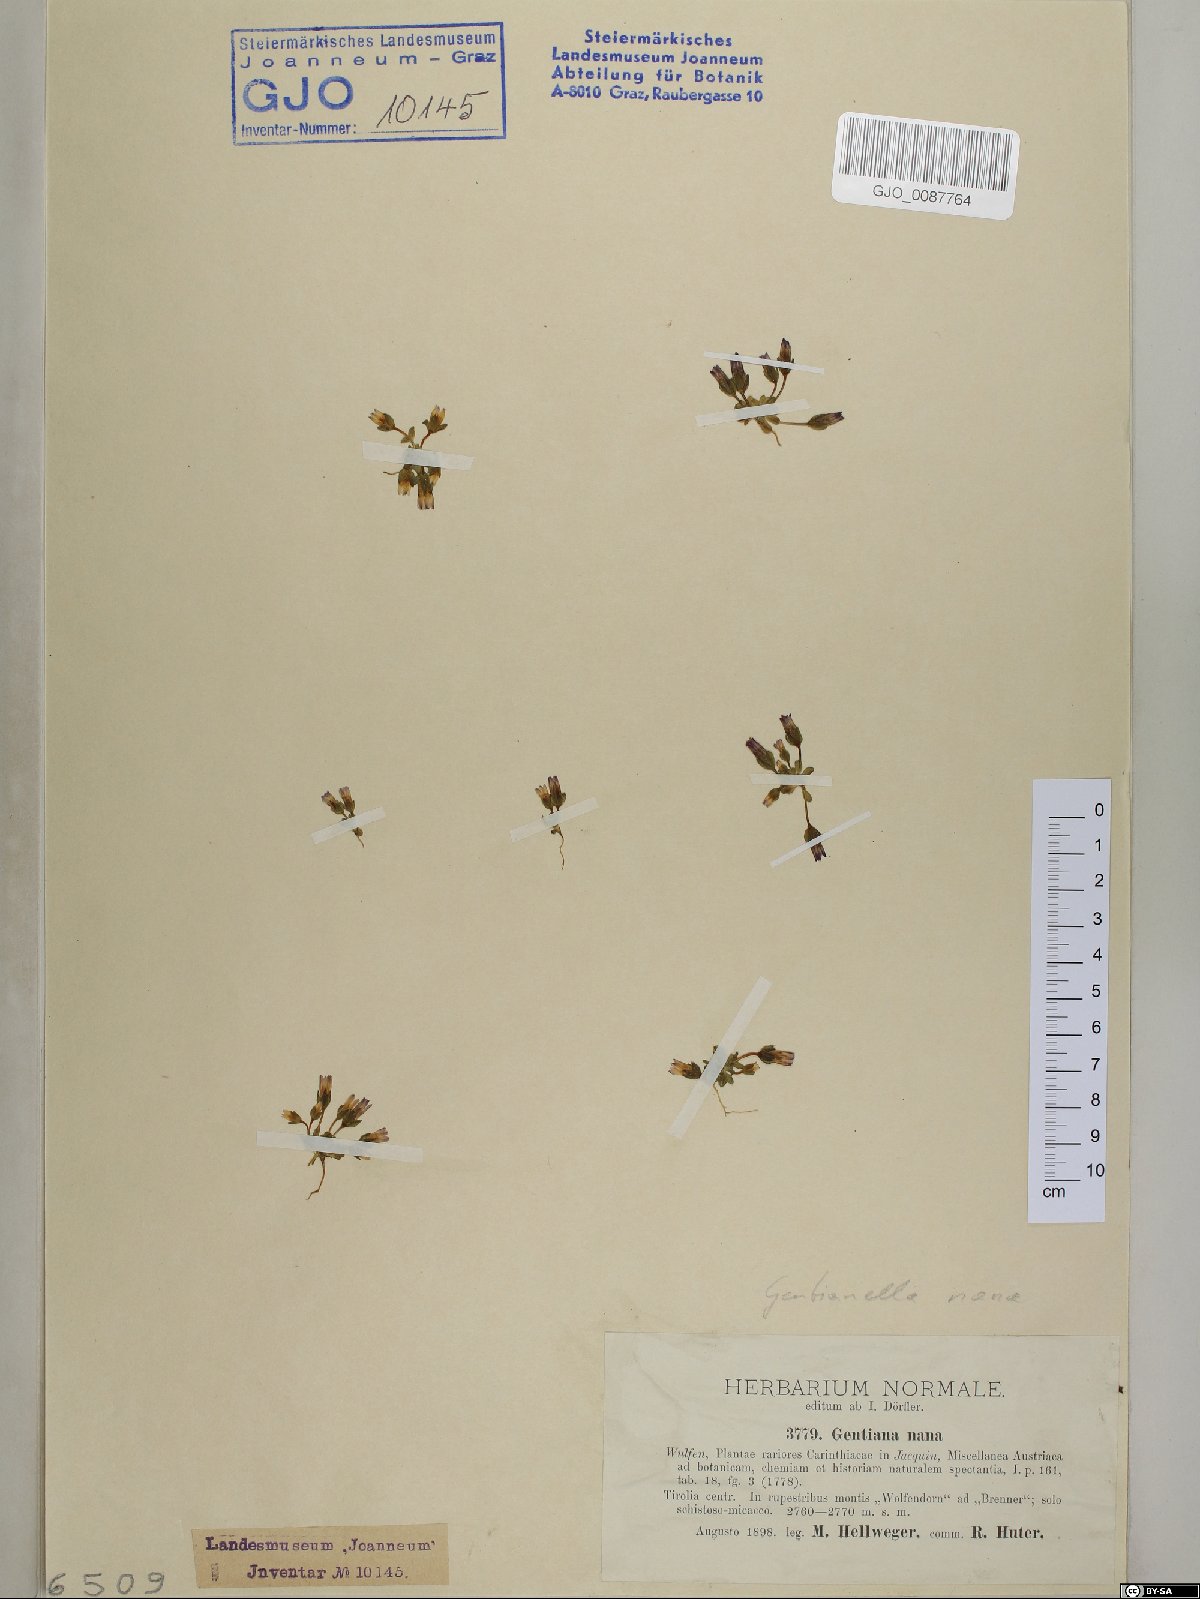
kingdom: Plantae
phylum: Tracheophyta
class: Magnoliopsida
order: Gentianales
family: Gentianaceae
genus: Comastoma
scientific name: Comastoma nanum
